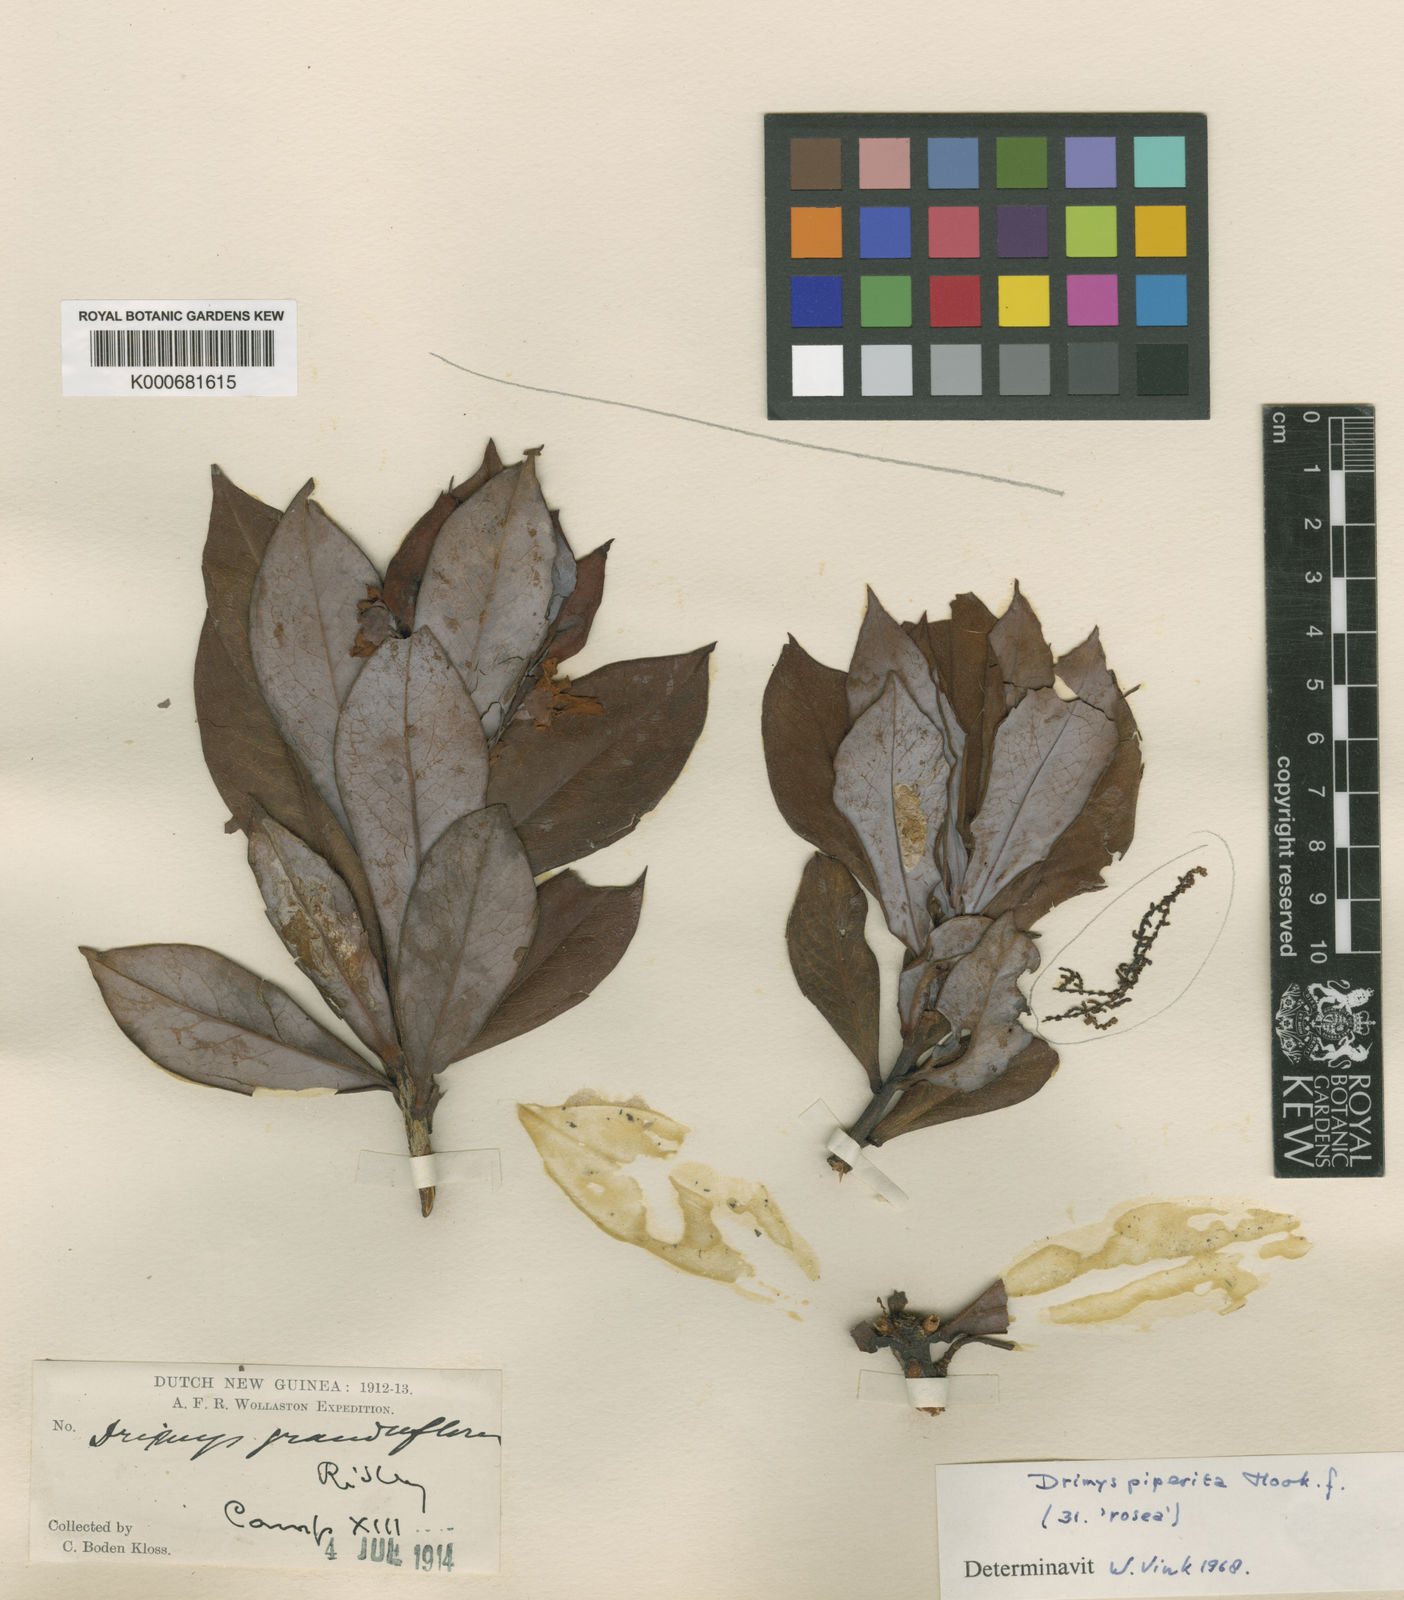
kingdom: Plantae
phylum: Tracheophyta
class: Magnoliopsida
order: Canellales
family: Winteraceae
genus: Drimys
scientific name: Drimys piperita
